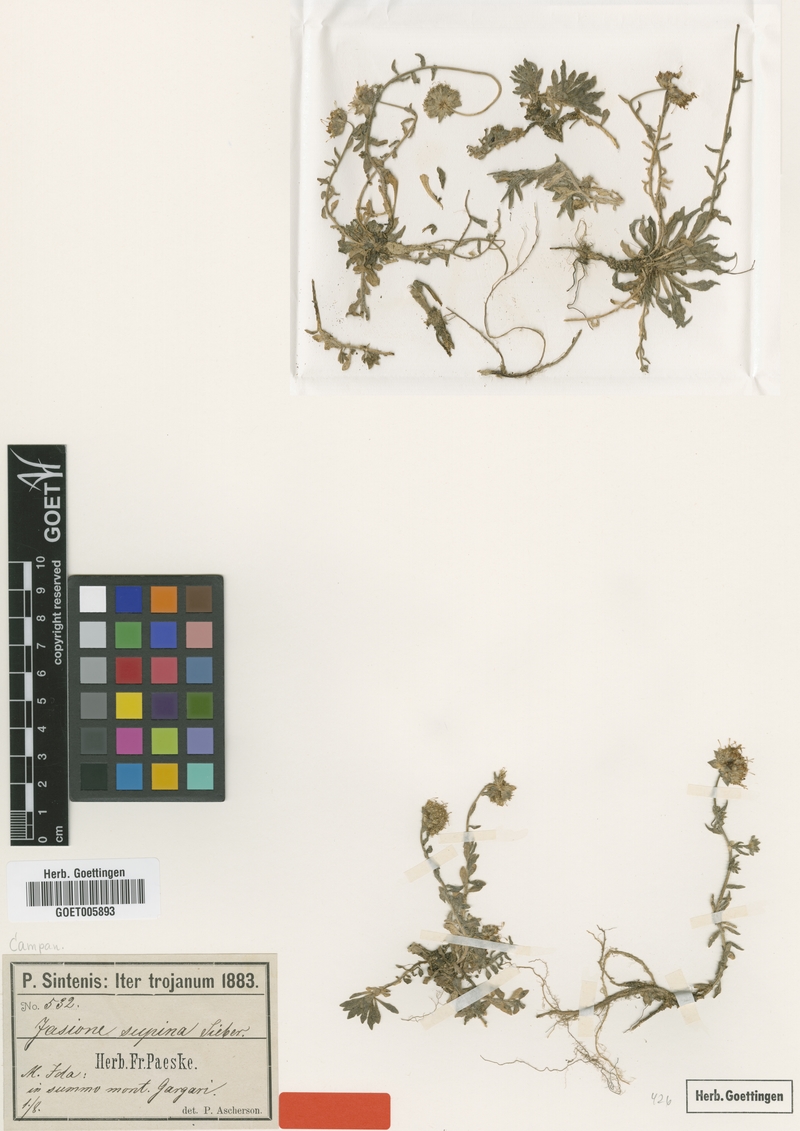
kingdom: Plantae
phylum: Tracheophyta
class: Magnoliopsida
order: Asterales
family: Campanulaceae
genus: Jasione
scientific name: Jasione idaea
